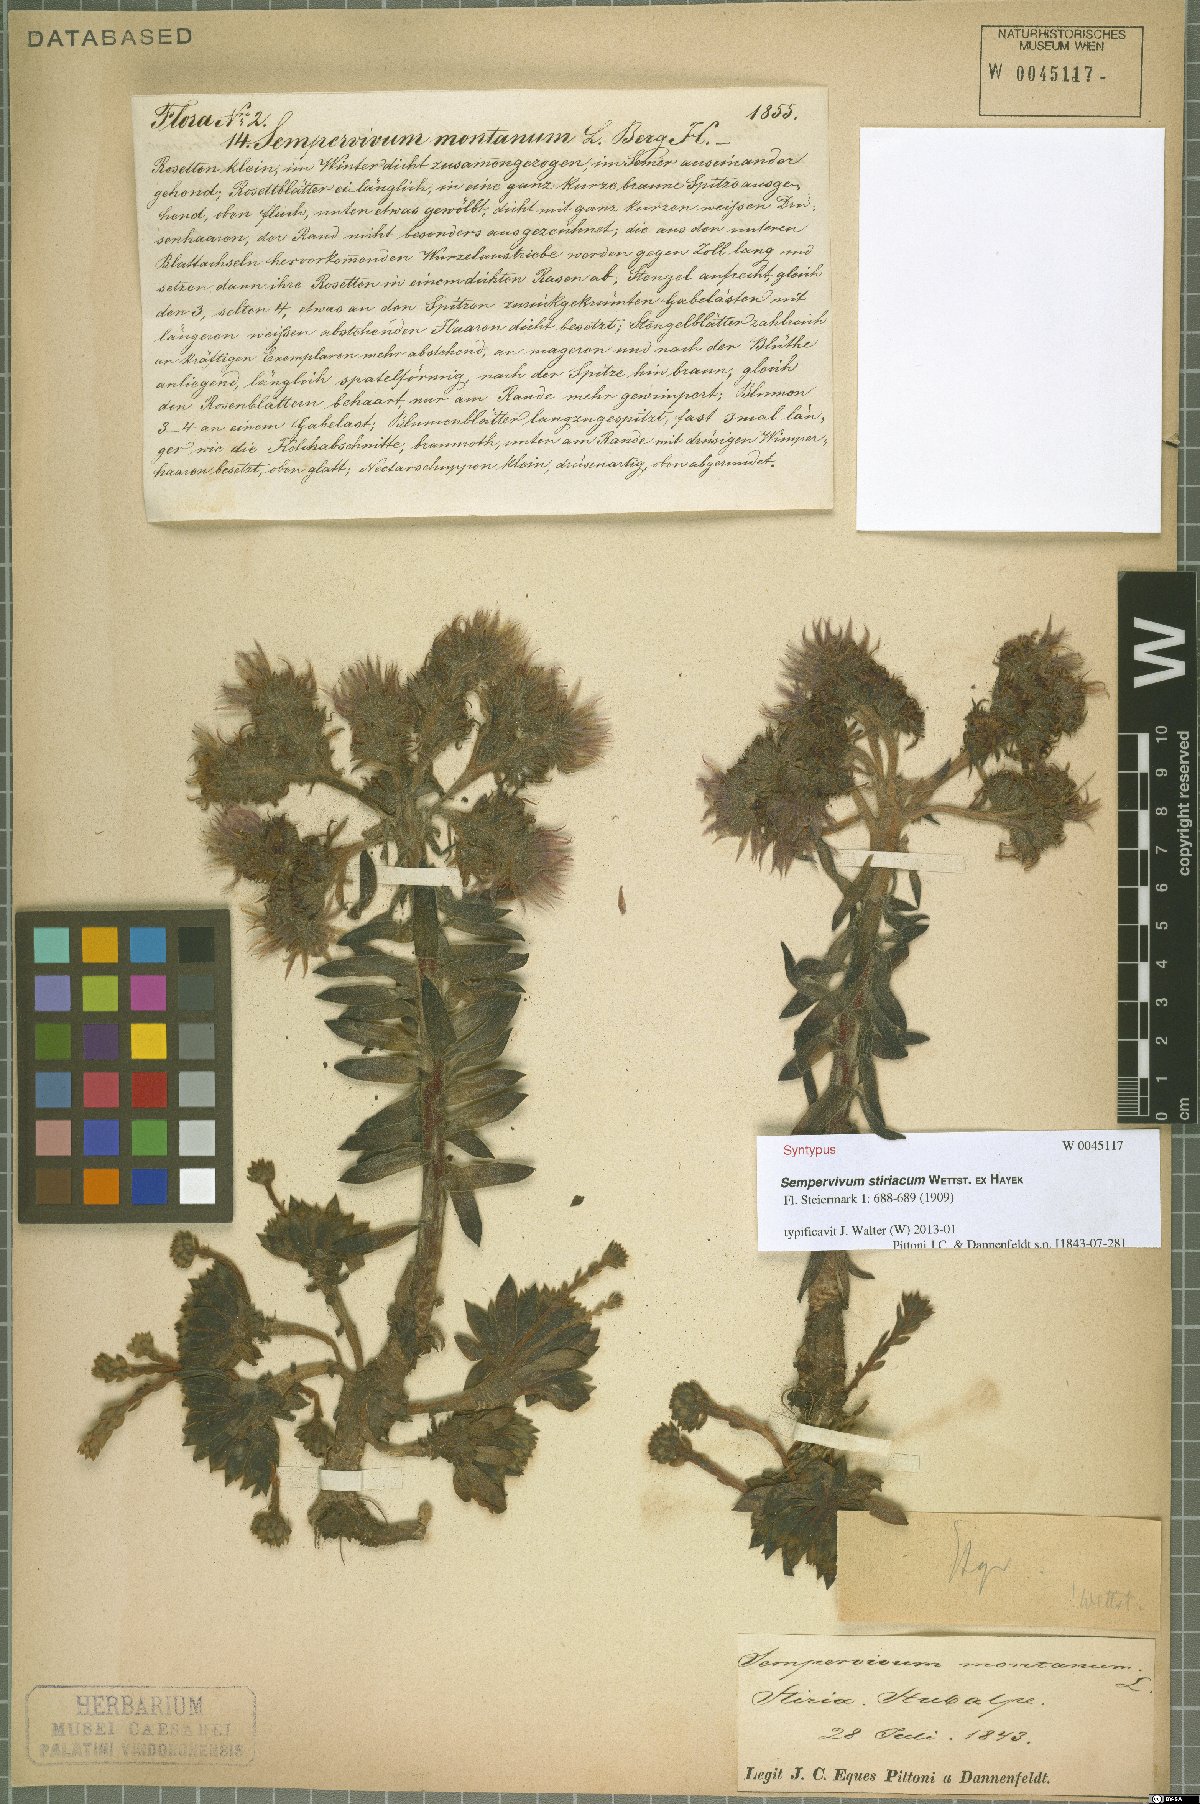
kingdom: Plantae
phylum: Tracheophyta
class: Magnoliopsida
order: Saxifragales
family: Crassulaceae
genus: Sempervivum
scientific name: Sempervivum montanum
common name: Mountain house-leek
